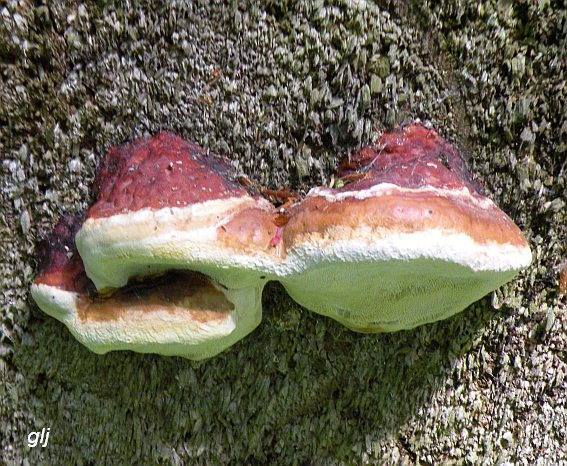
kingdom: Fungi
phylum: Basidiomycota
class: Agaricomycetes
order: Polyporales
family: Fomitopsidaceae
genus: Fomitopsis
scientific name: Fomitopsis pinicola
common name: randbæltet hovporesvamp
